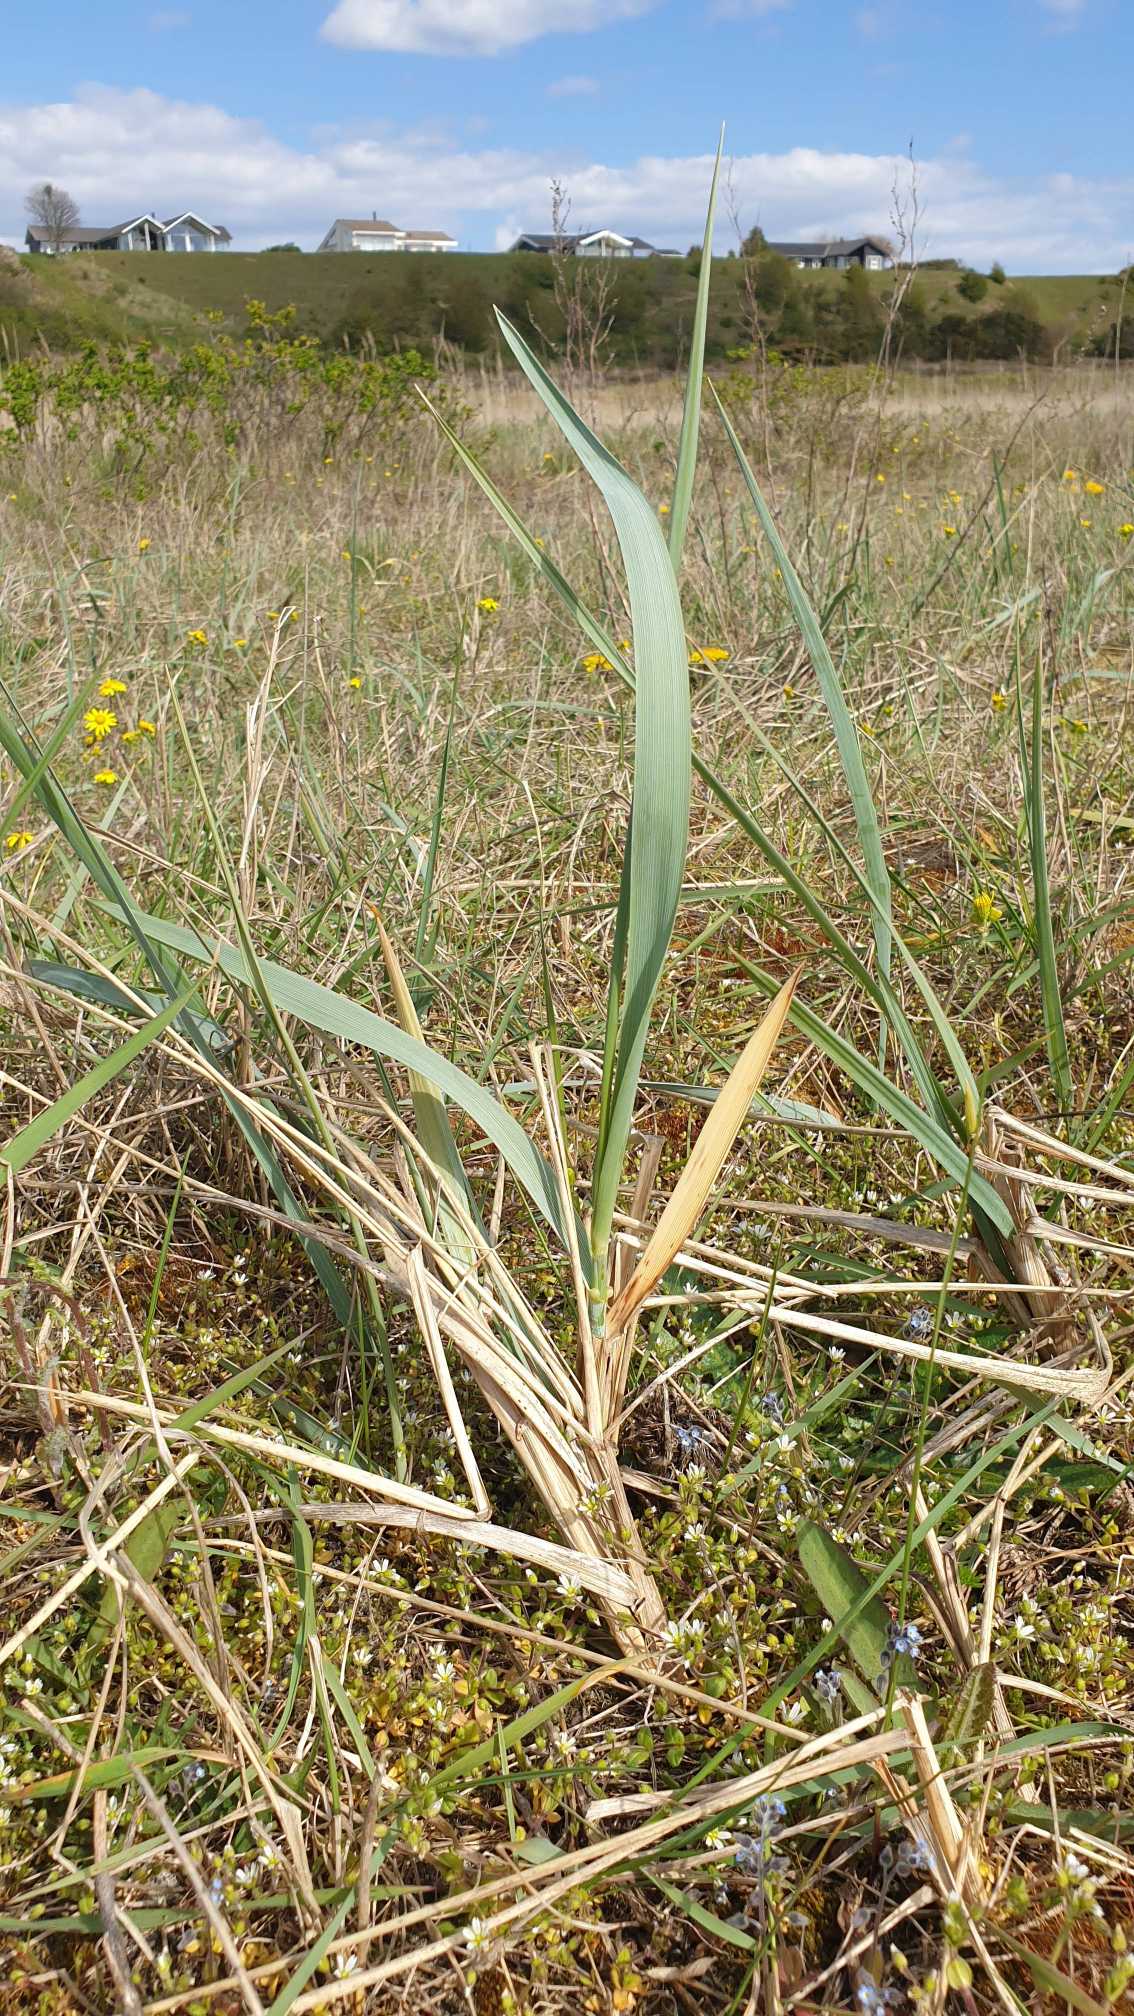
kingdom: Plantae
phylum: Tracheophyta
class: Liliopsida
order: Poales
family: Poaceae
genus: Leymus
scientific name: Leymus arenarius
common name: Marehalm
